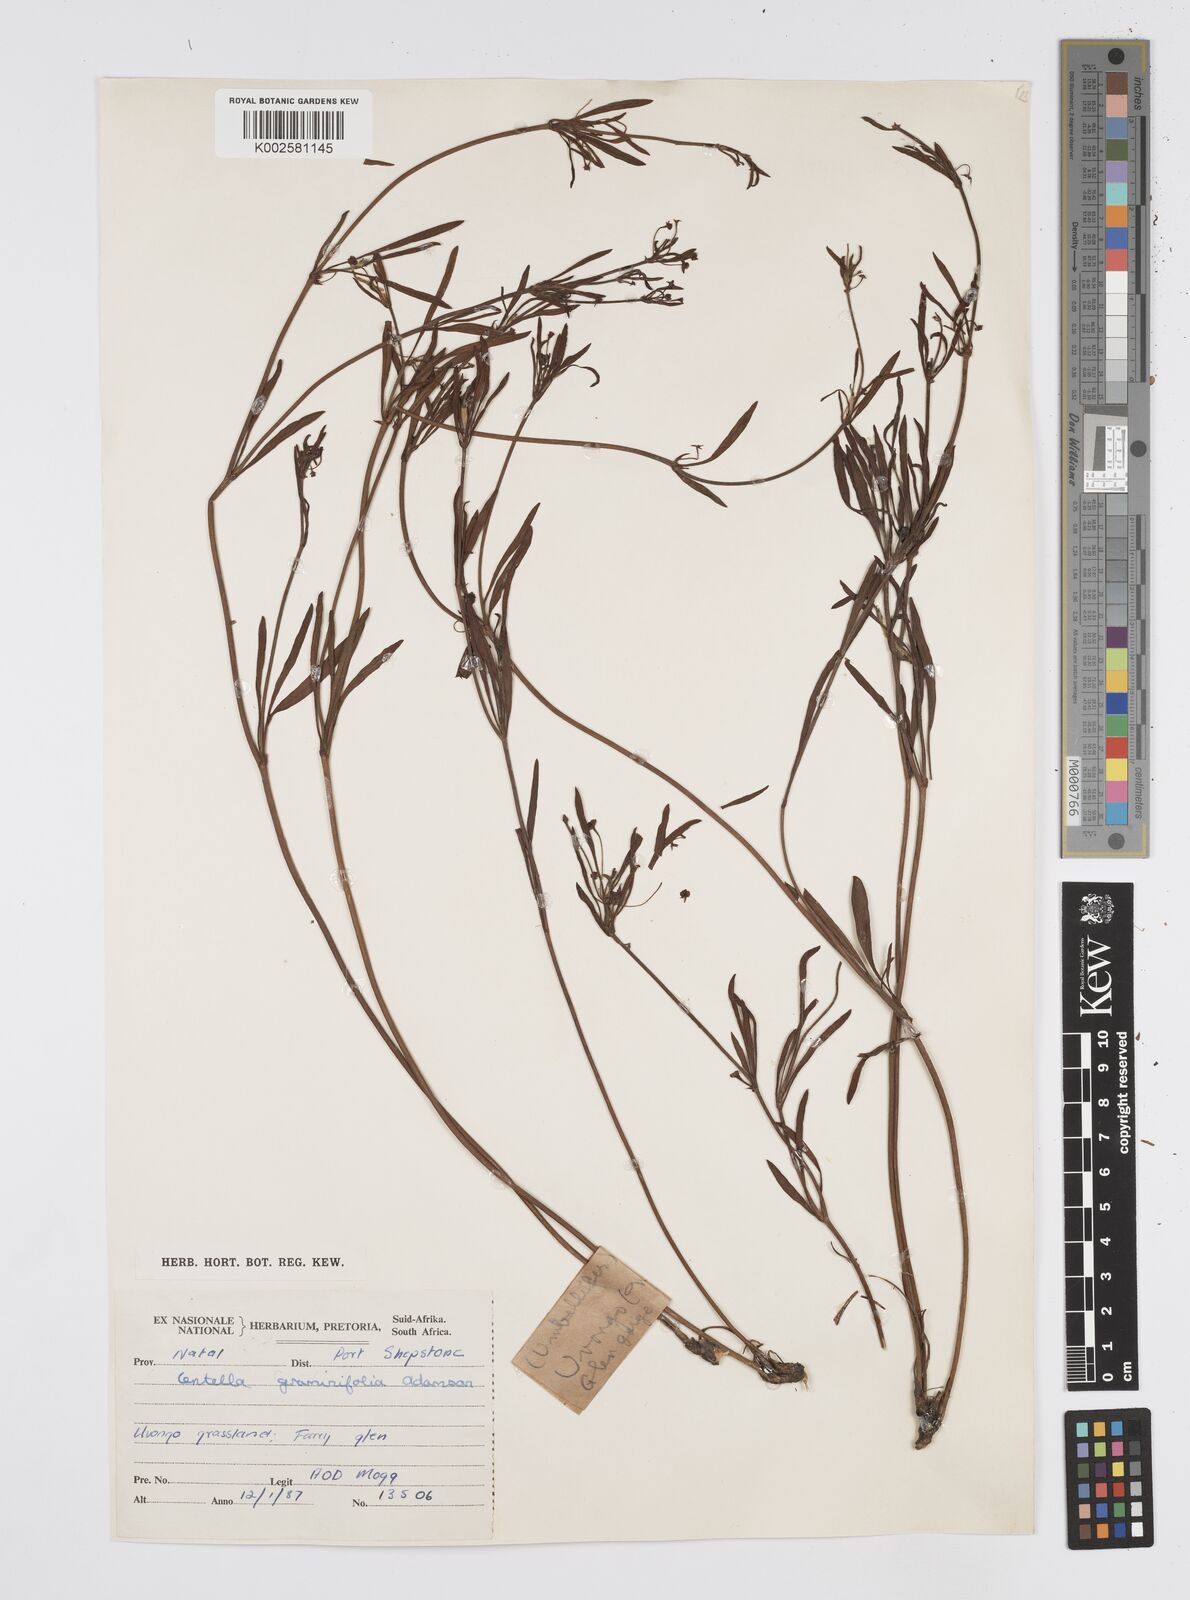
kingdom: Plantae
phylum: Tracheophyta
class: Magnoliopsida
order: Apiales
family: Apiaceae
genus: Centella
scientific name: Centella graminifolia
